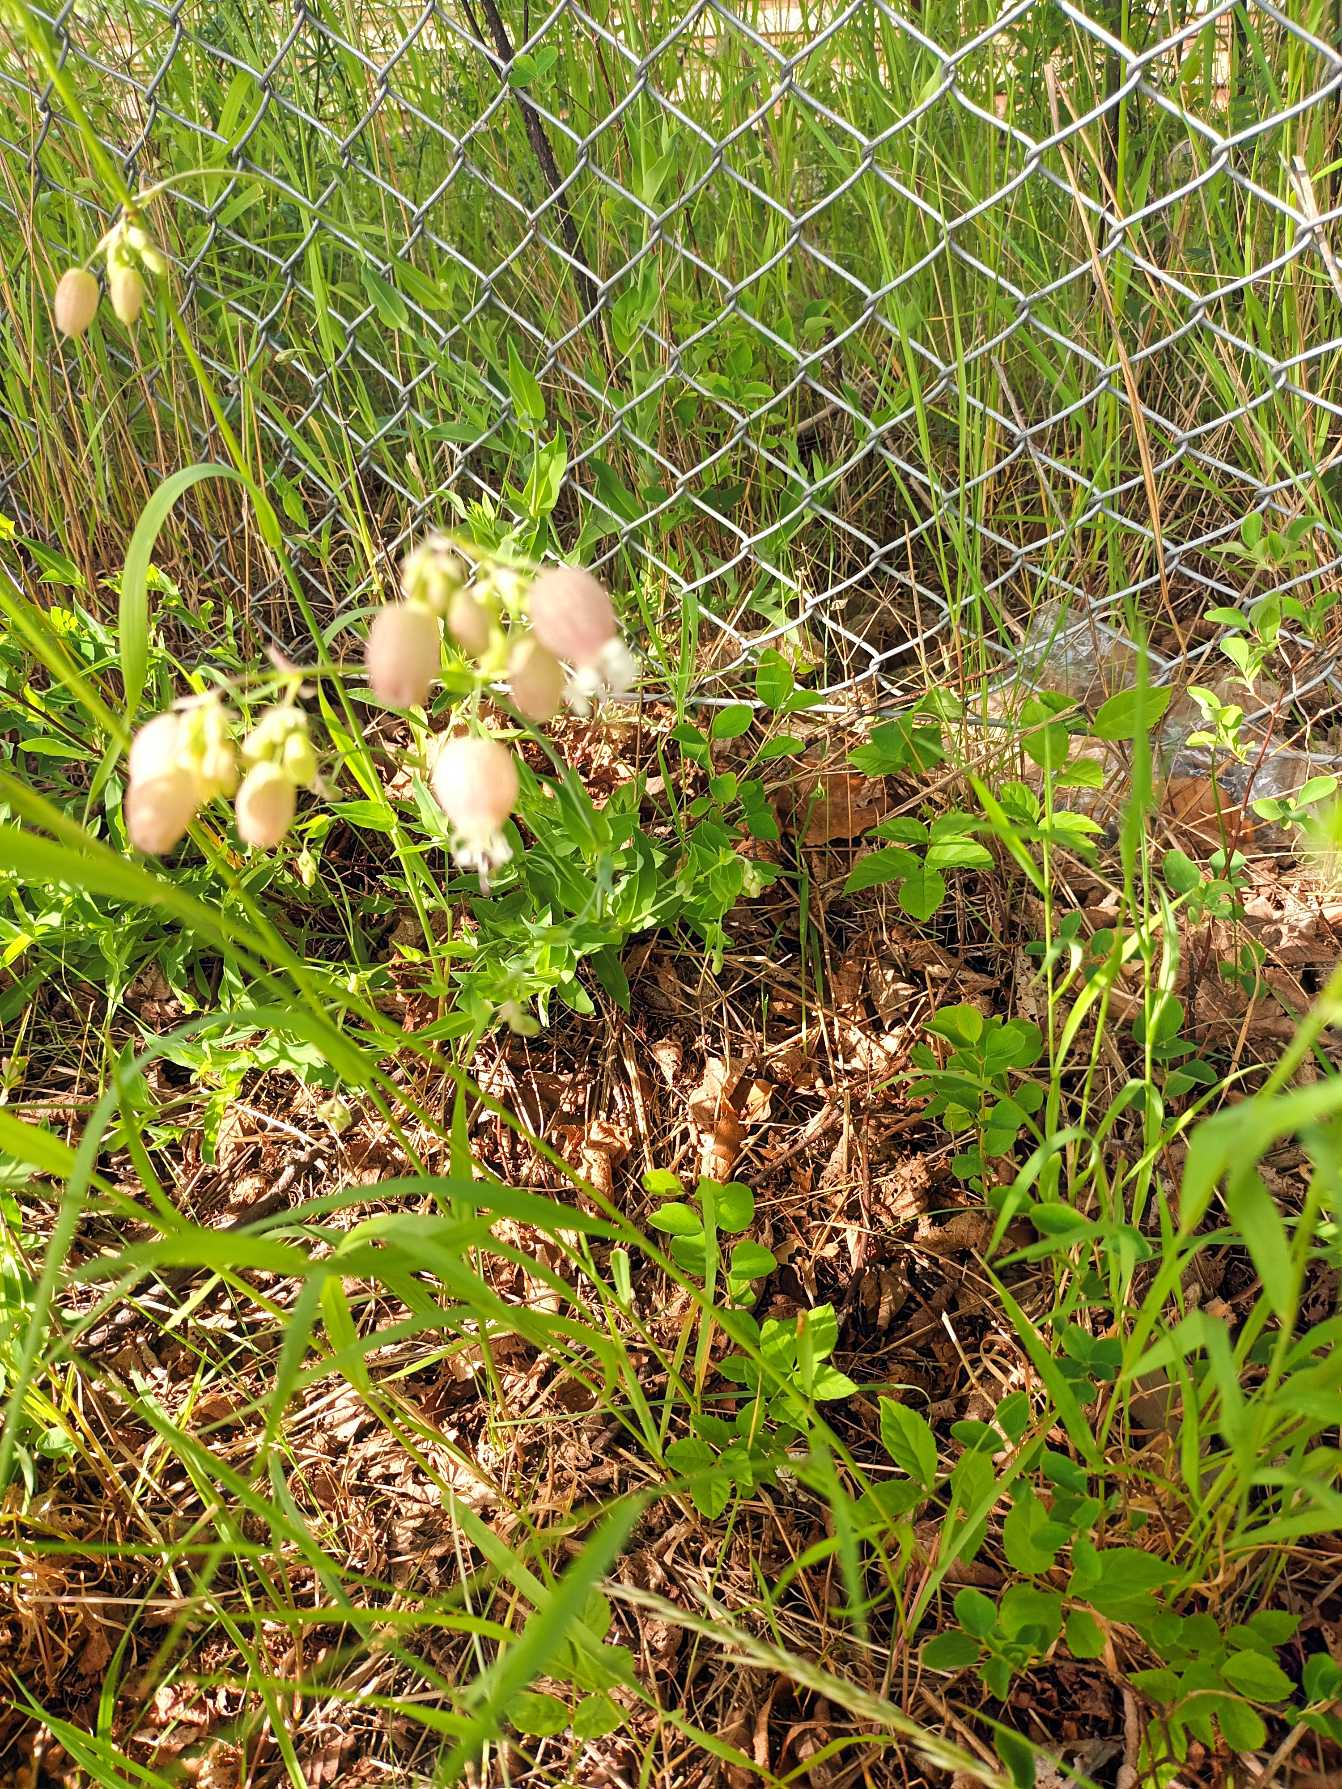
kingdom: Plantae
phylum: Tracheophyta
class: Magnoliopsida
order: Caryophyllales
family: Caryophyllaceae
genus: Silene
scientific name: Silene vulgaris
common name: Blæresmælde
